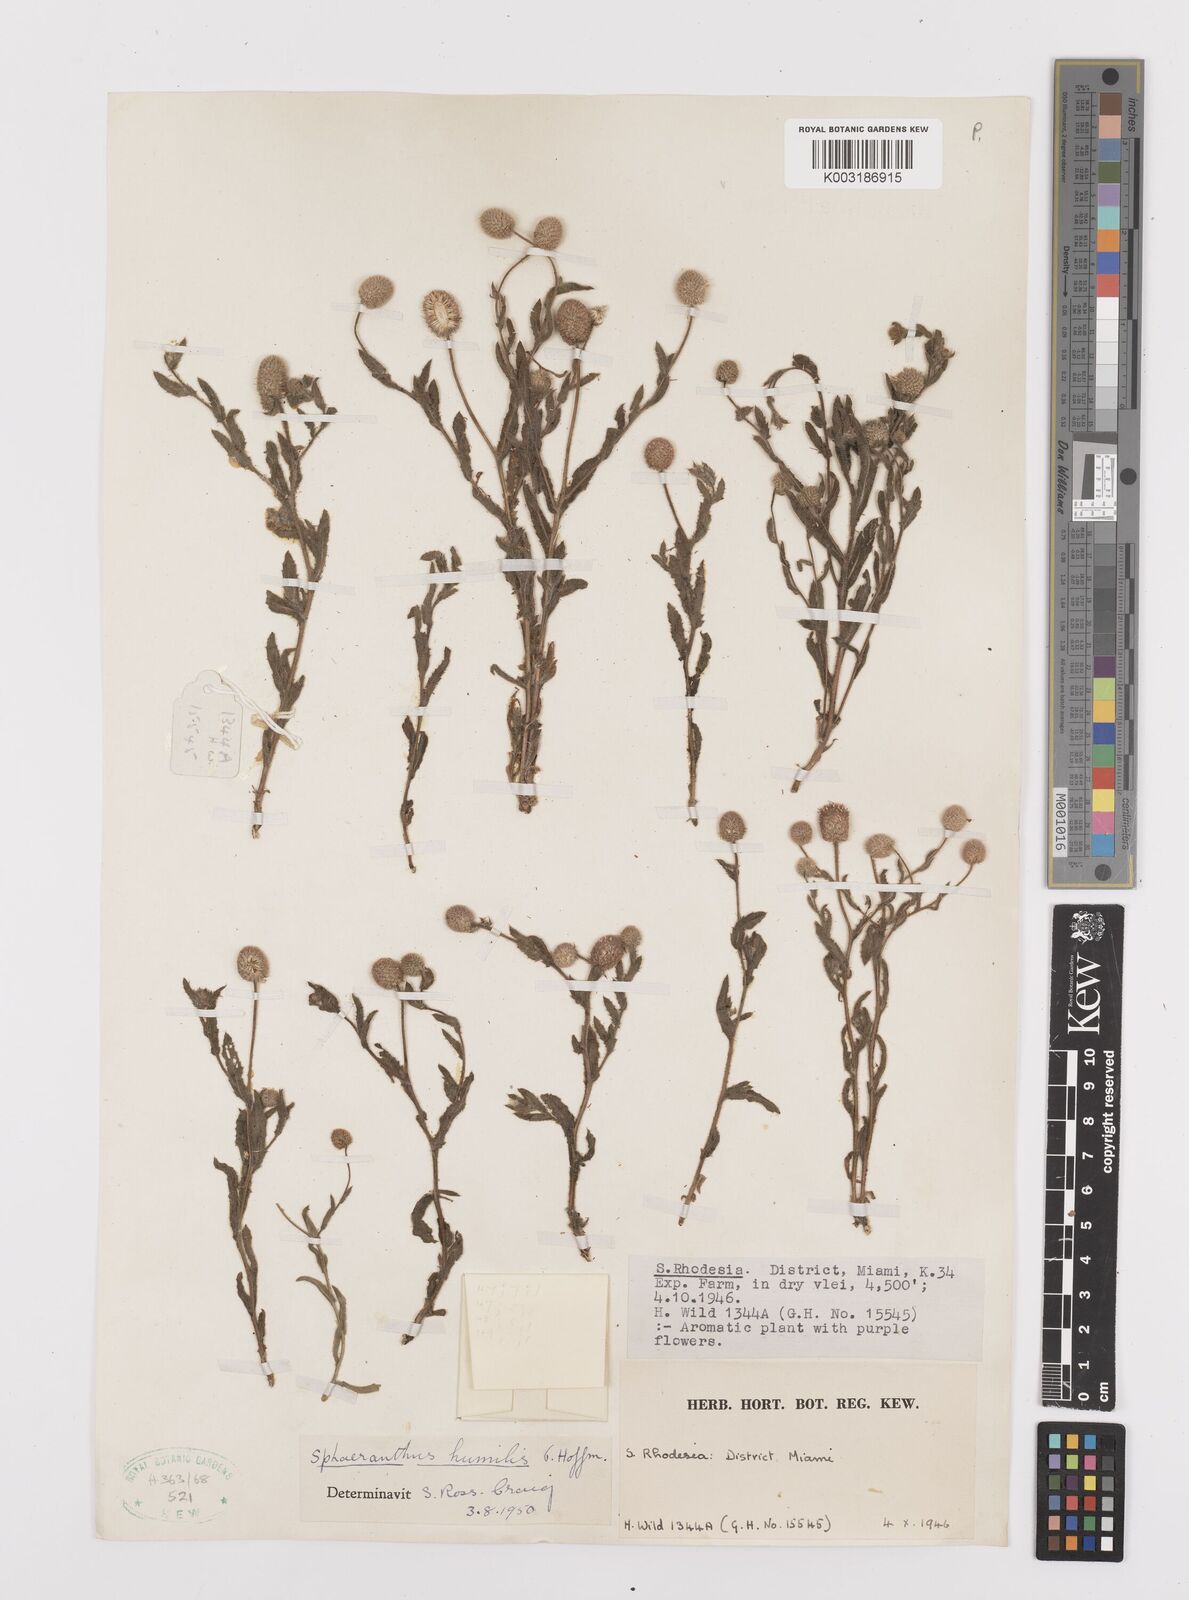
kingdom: Plantae
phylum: Tracheophyta
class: Magnoliopsida
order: Asterales
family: Asteraceae
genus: Sphaeranthus
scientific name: Sphaeranthus flexuosus
